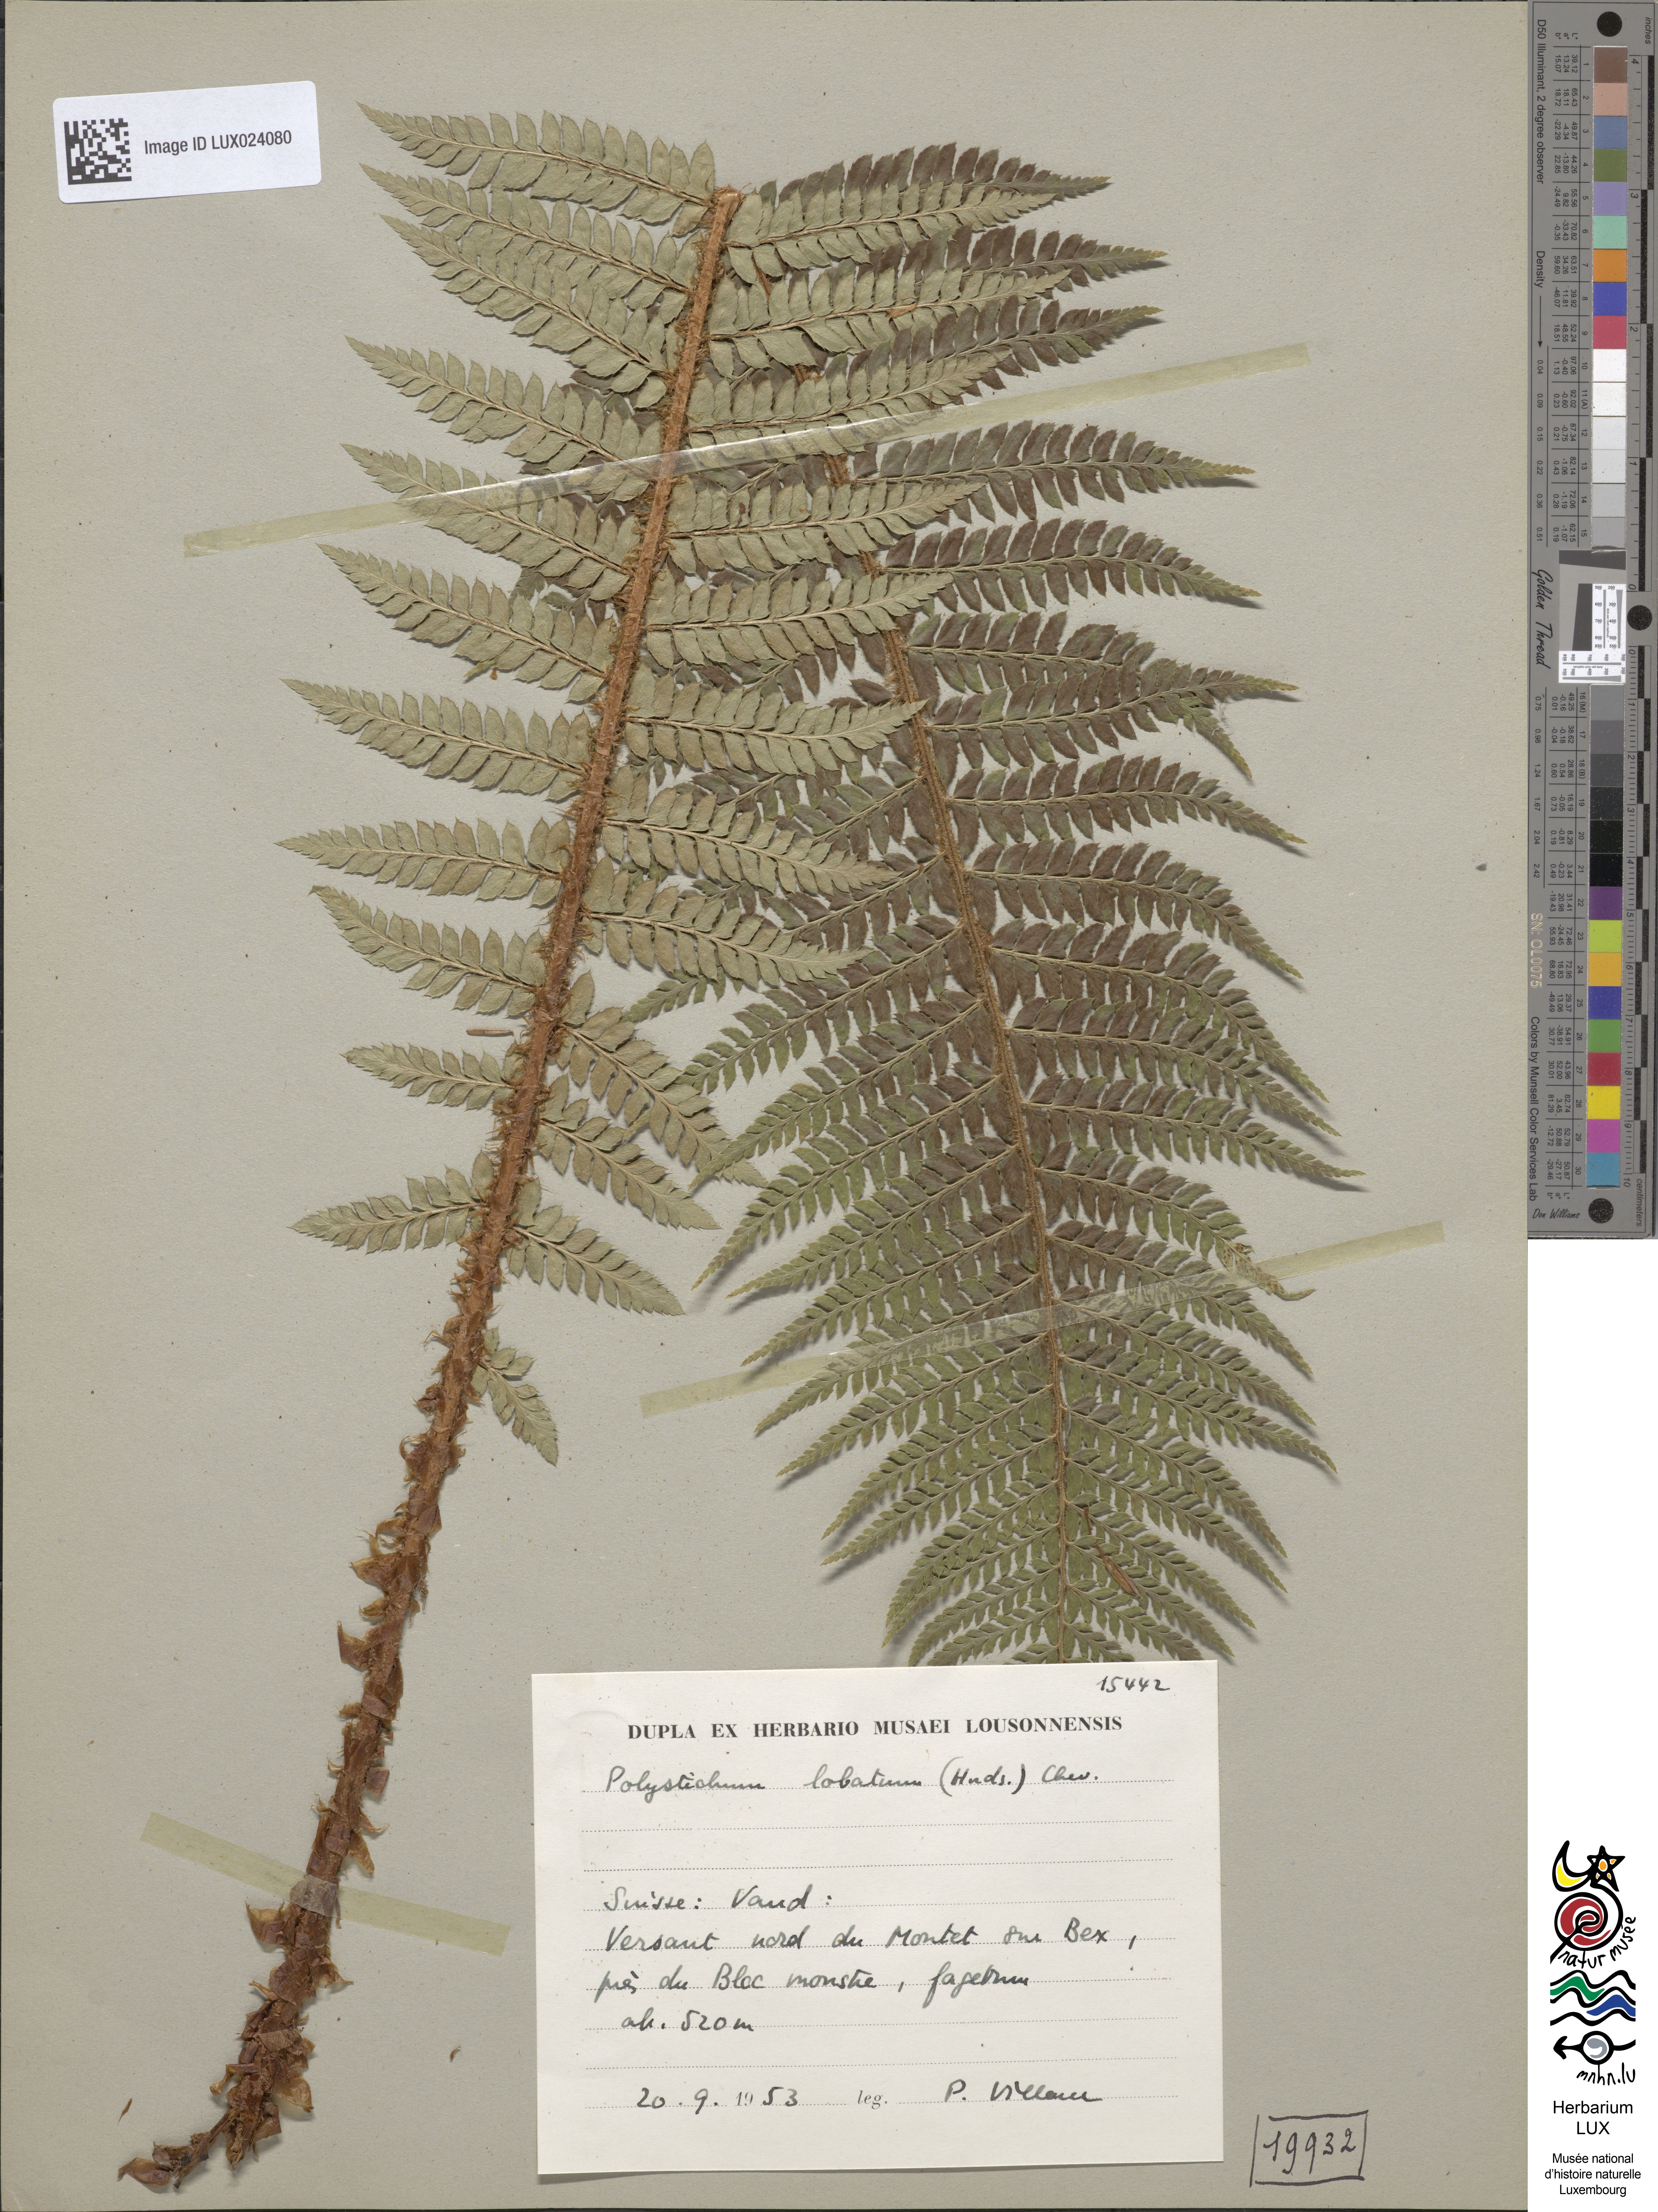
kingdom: Plantae
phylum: Tracheophyta
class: Polypodiopsida
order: Polypodiales
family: Dryopteridaceae
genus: Polystichum
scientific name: Polystichum aculeatum
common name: Hard shield-fern
